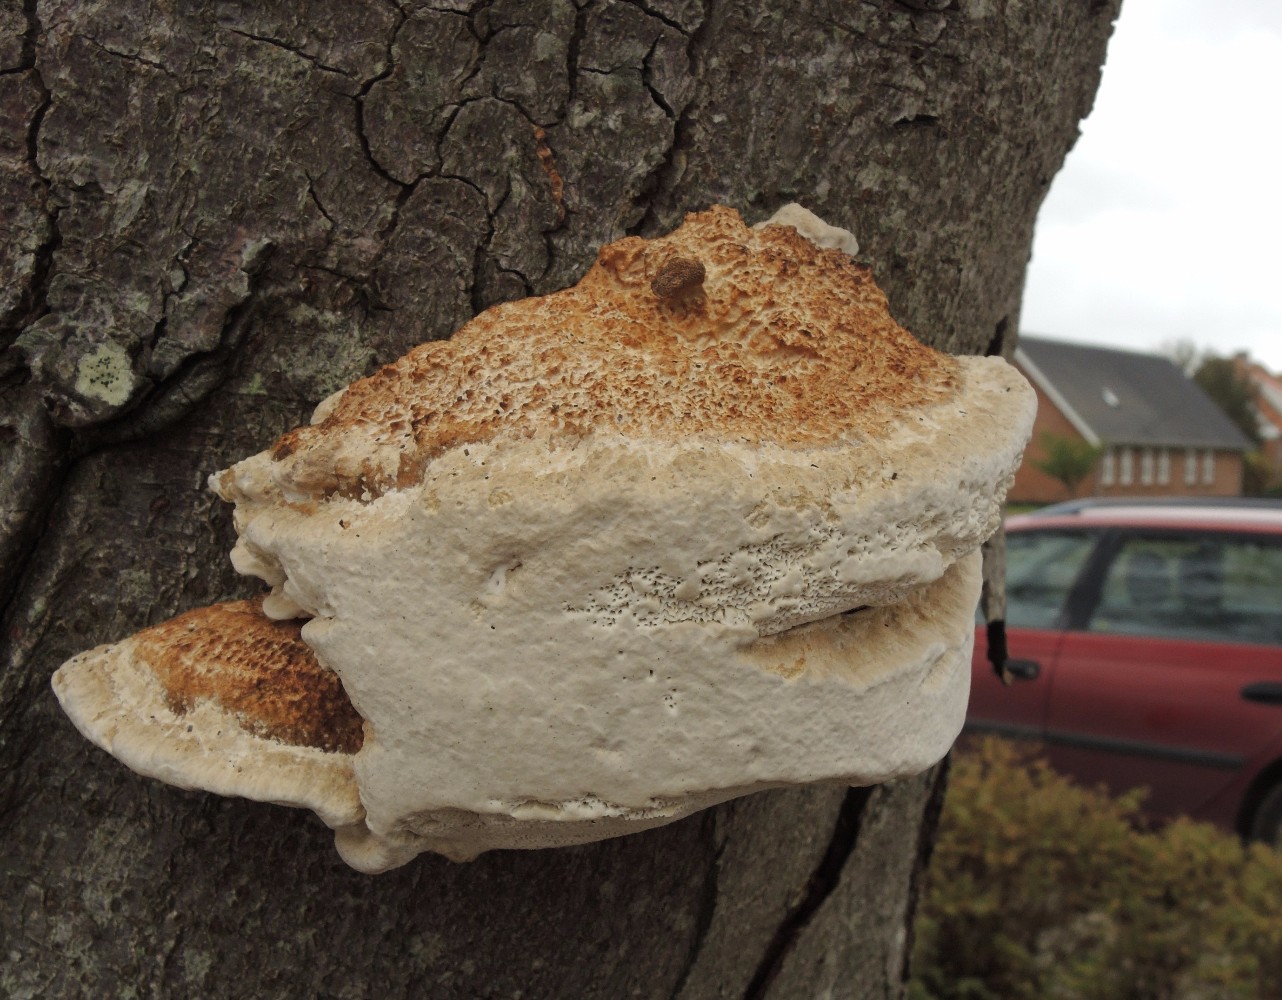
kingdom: Fungi
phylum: Basidiomycota
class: Agaricomycetes
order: Polyporales
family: Polyporaceae
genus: Daedaleopsis
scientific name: Daedaleopsis confragosa
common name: rødmende læderporesvamp
